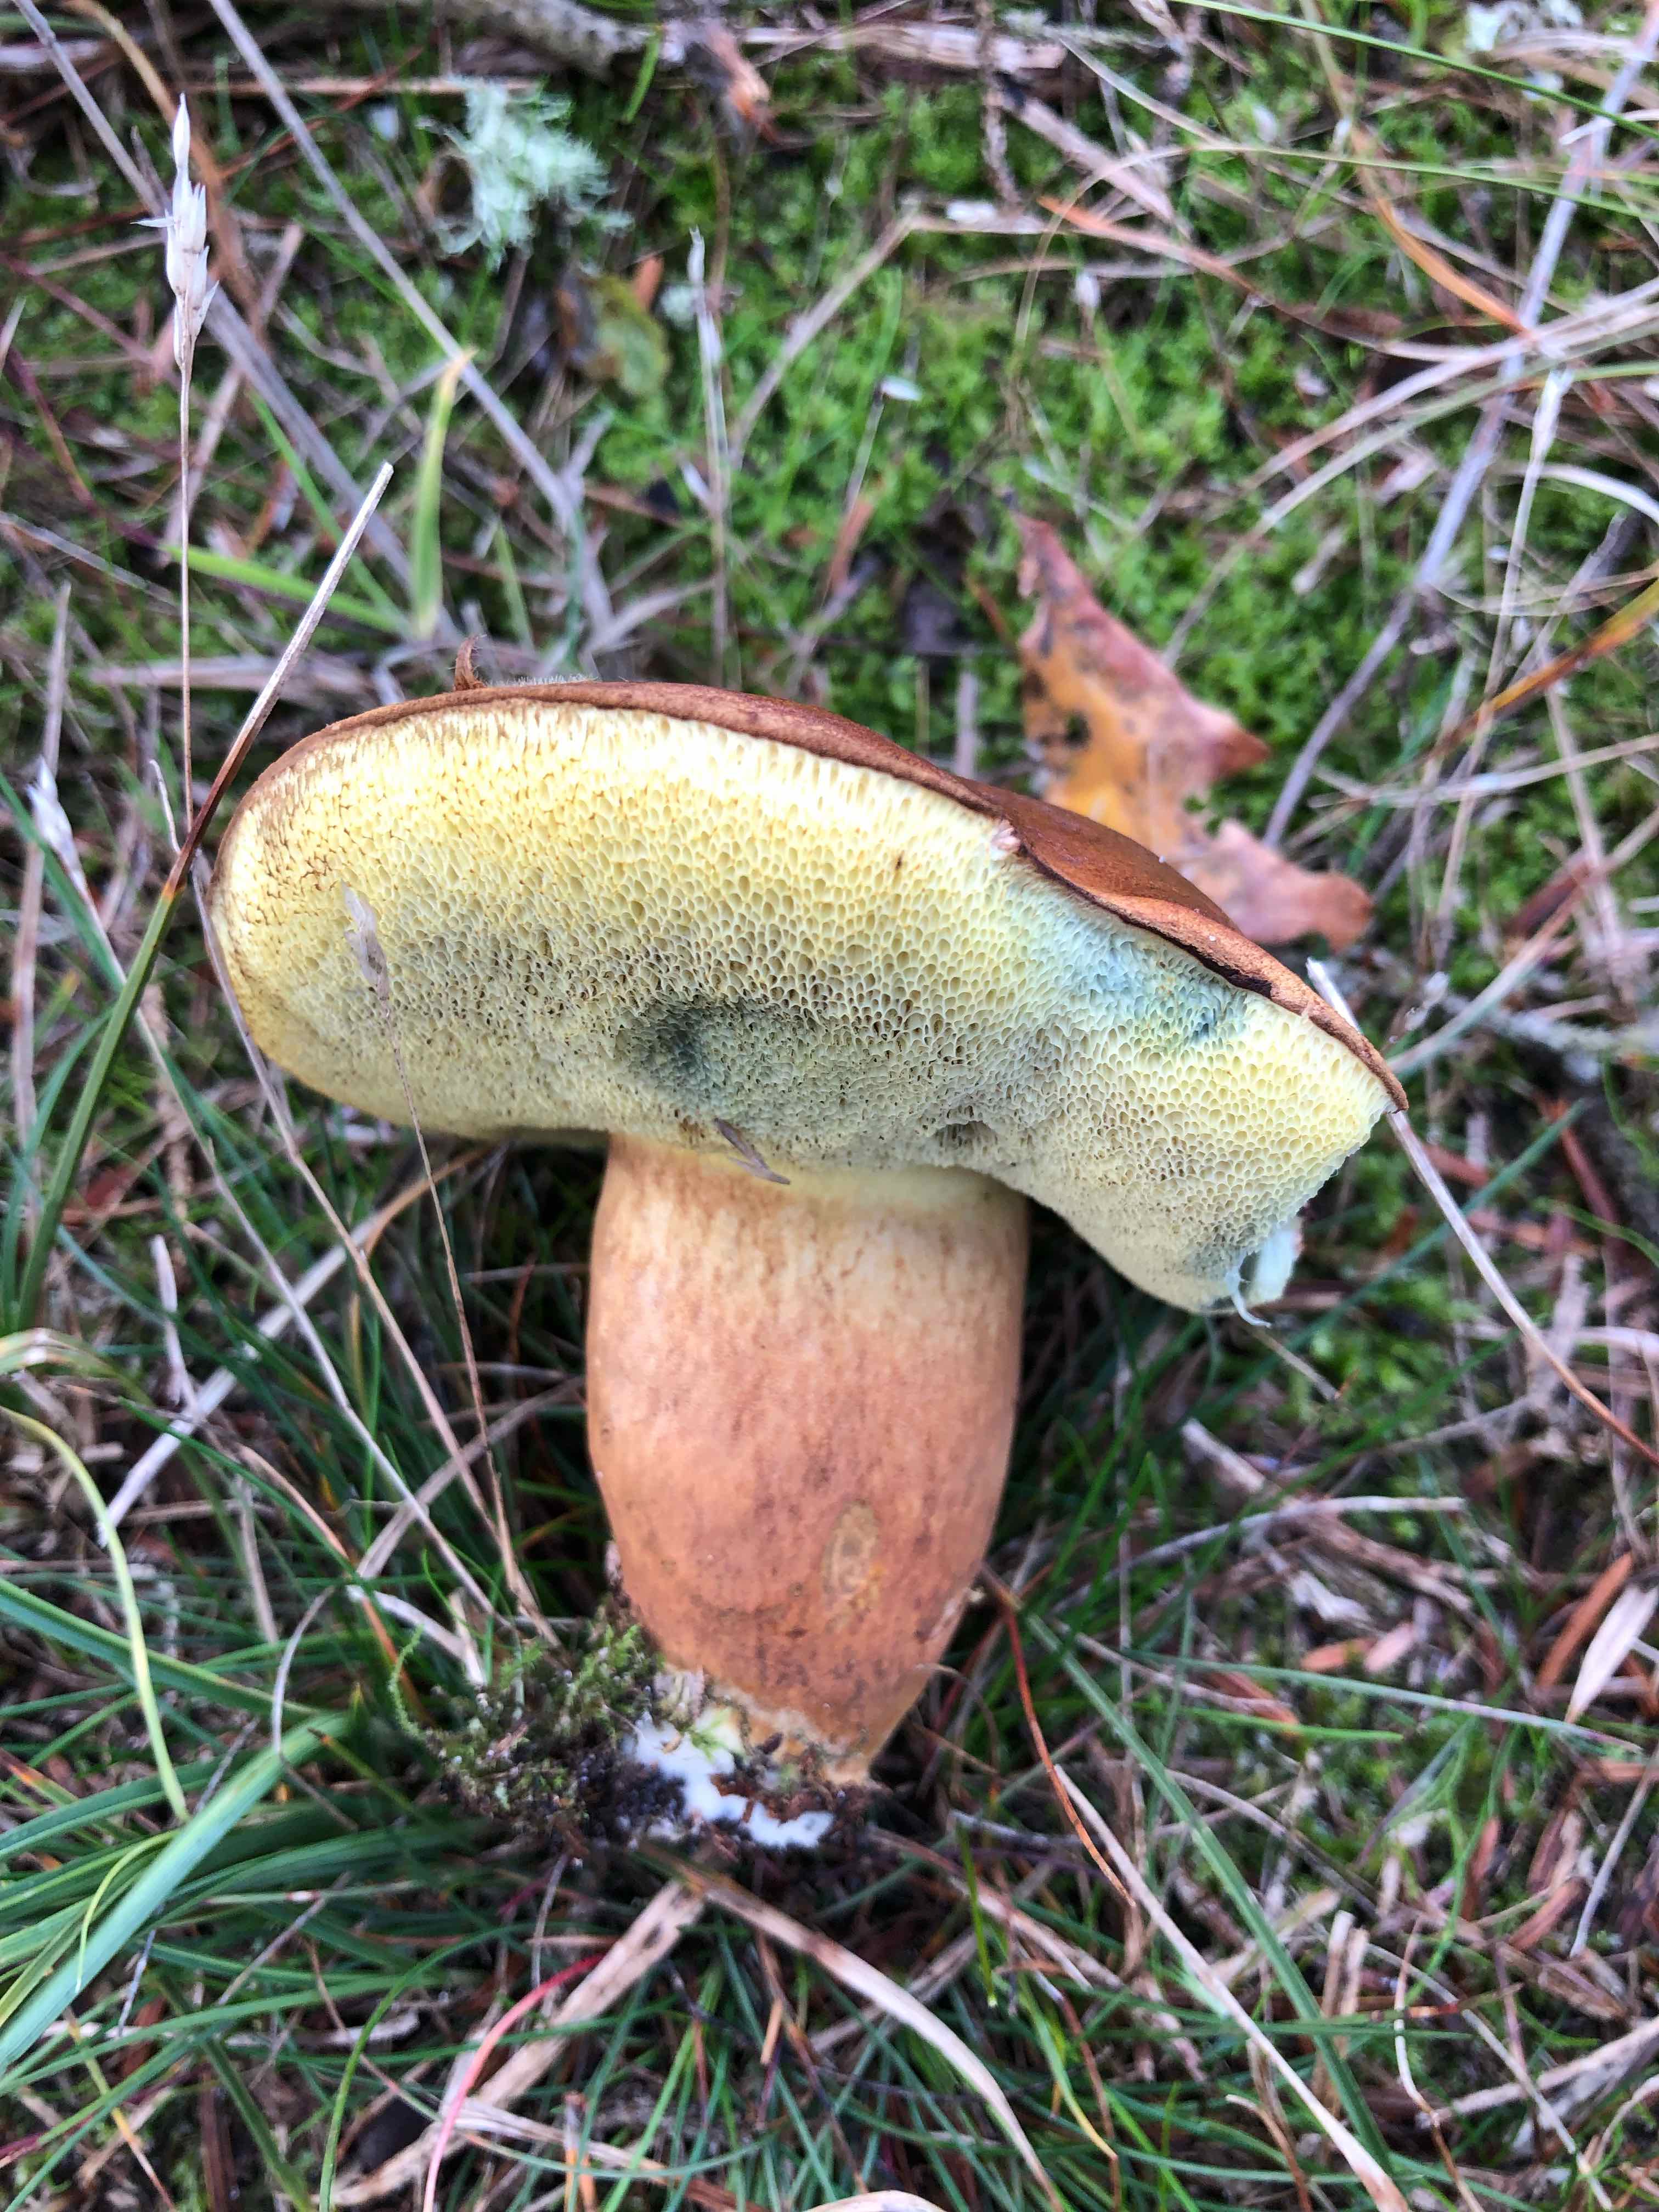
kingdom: Fungi
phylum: Basidiomycota
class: Agaricomycetes
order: Boletales
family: Boletaceae
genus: Imleria
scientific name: Imleria badia
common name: brunstokket rørhat
